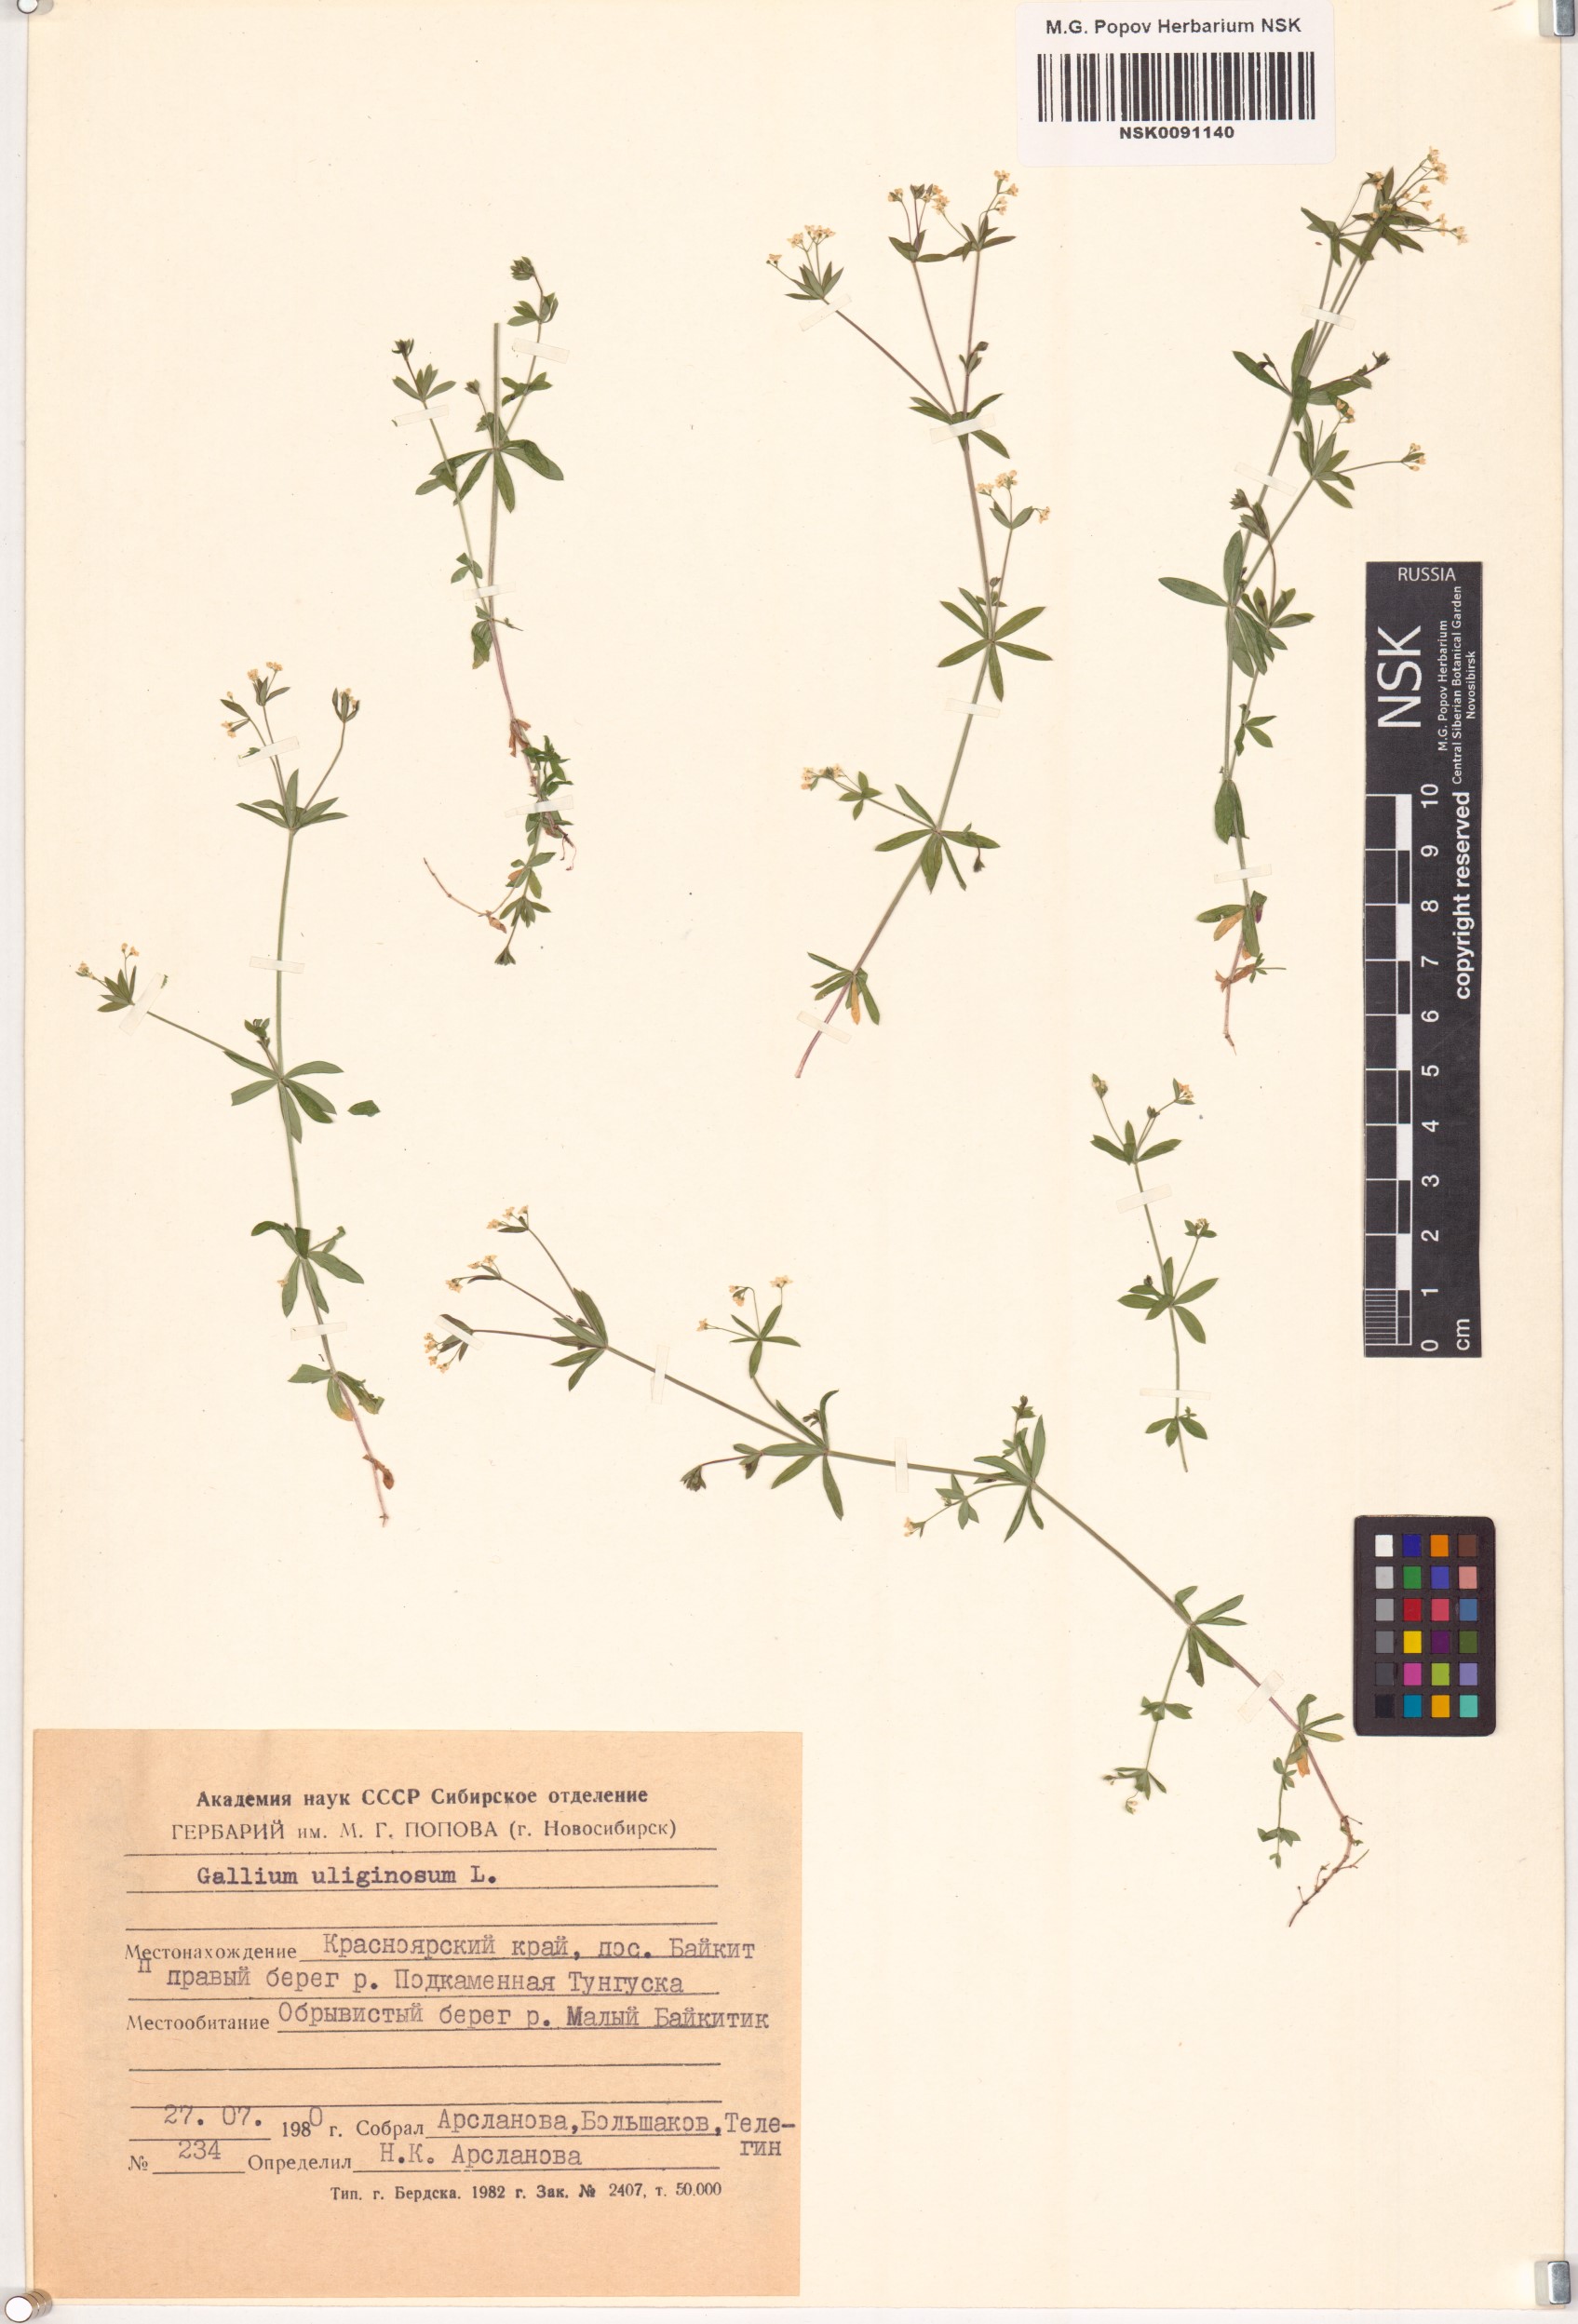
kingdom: Plantae
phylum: Tracheophyta
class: Magnoliopsida
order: Gentianales
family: Rubiaceae
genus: Galium
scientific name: Galium uliginosum
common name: Fen bedstraw
